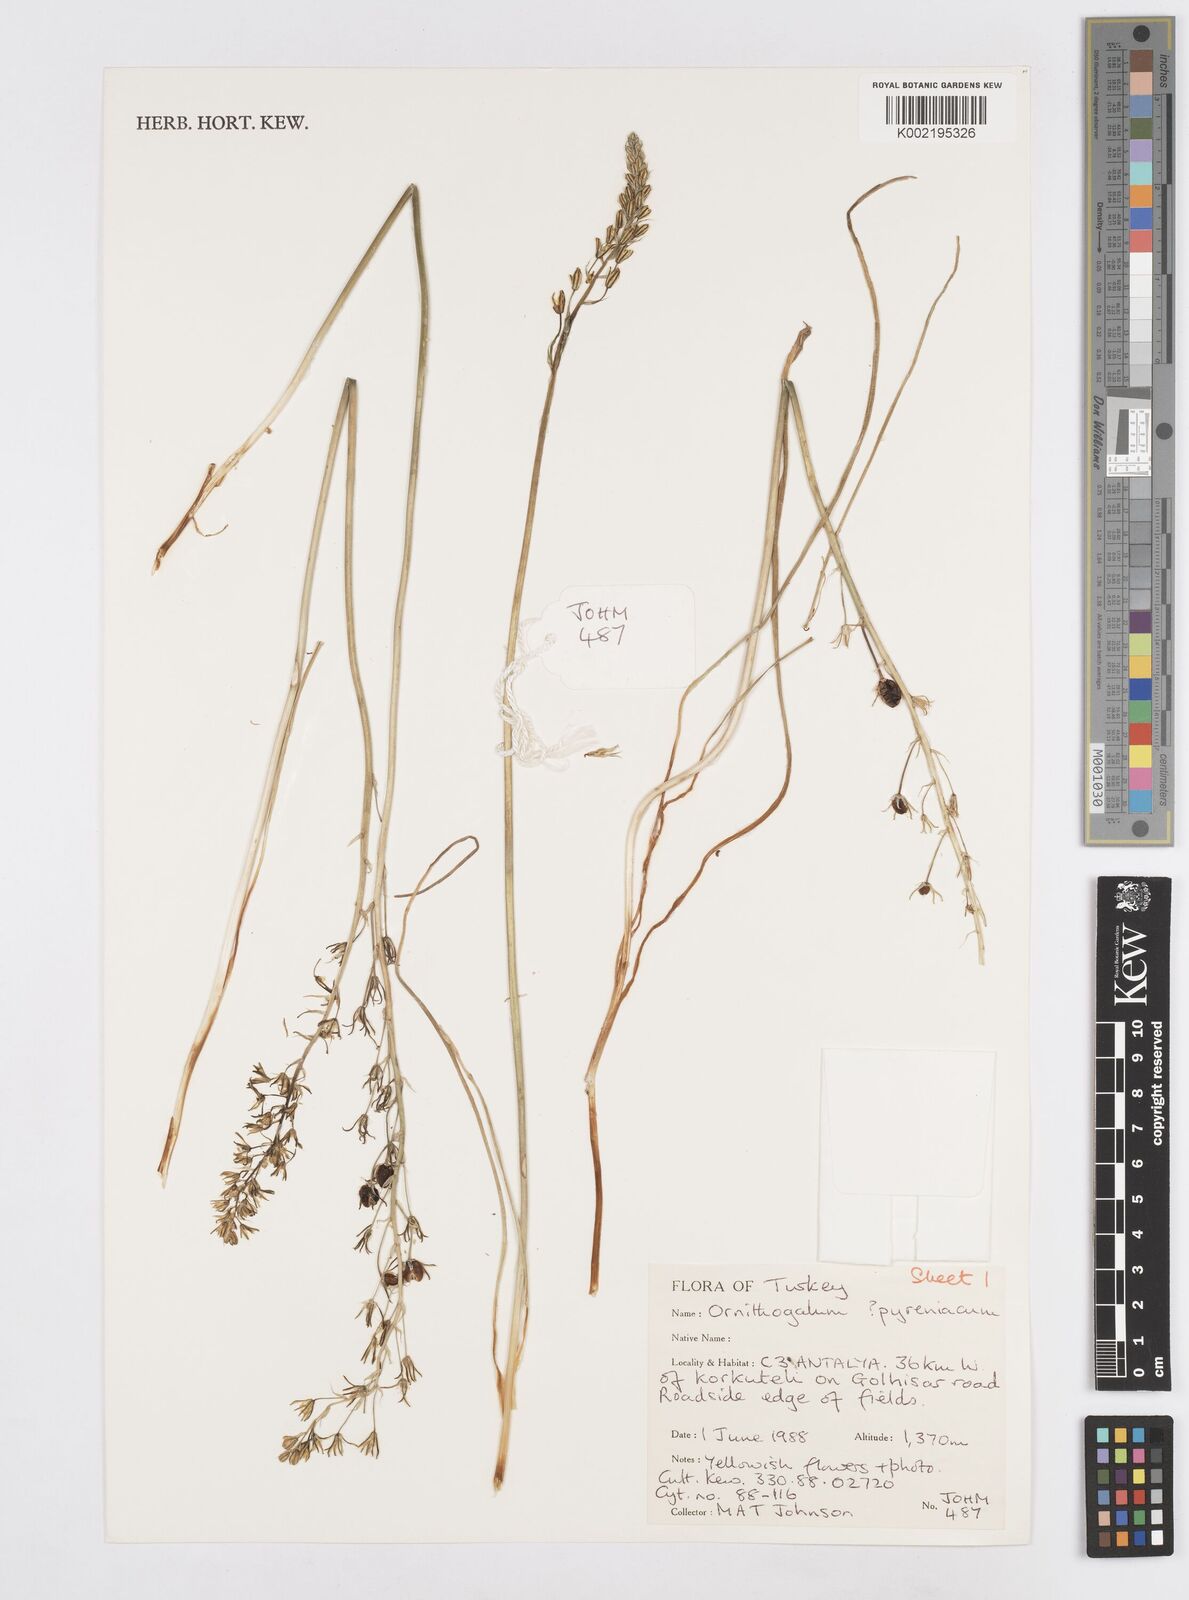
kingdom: Plantae
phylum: Tracheophyta
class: Liliopsida
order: Asparagales
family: Asparagaceae
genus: Ornithogalum
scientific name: Ornithogalum pyrenaicum
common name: Spiked star-of-bethlehem
